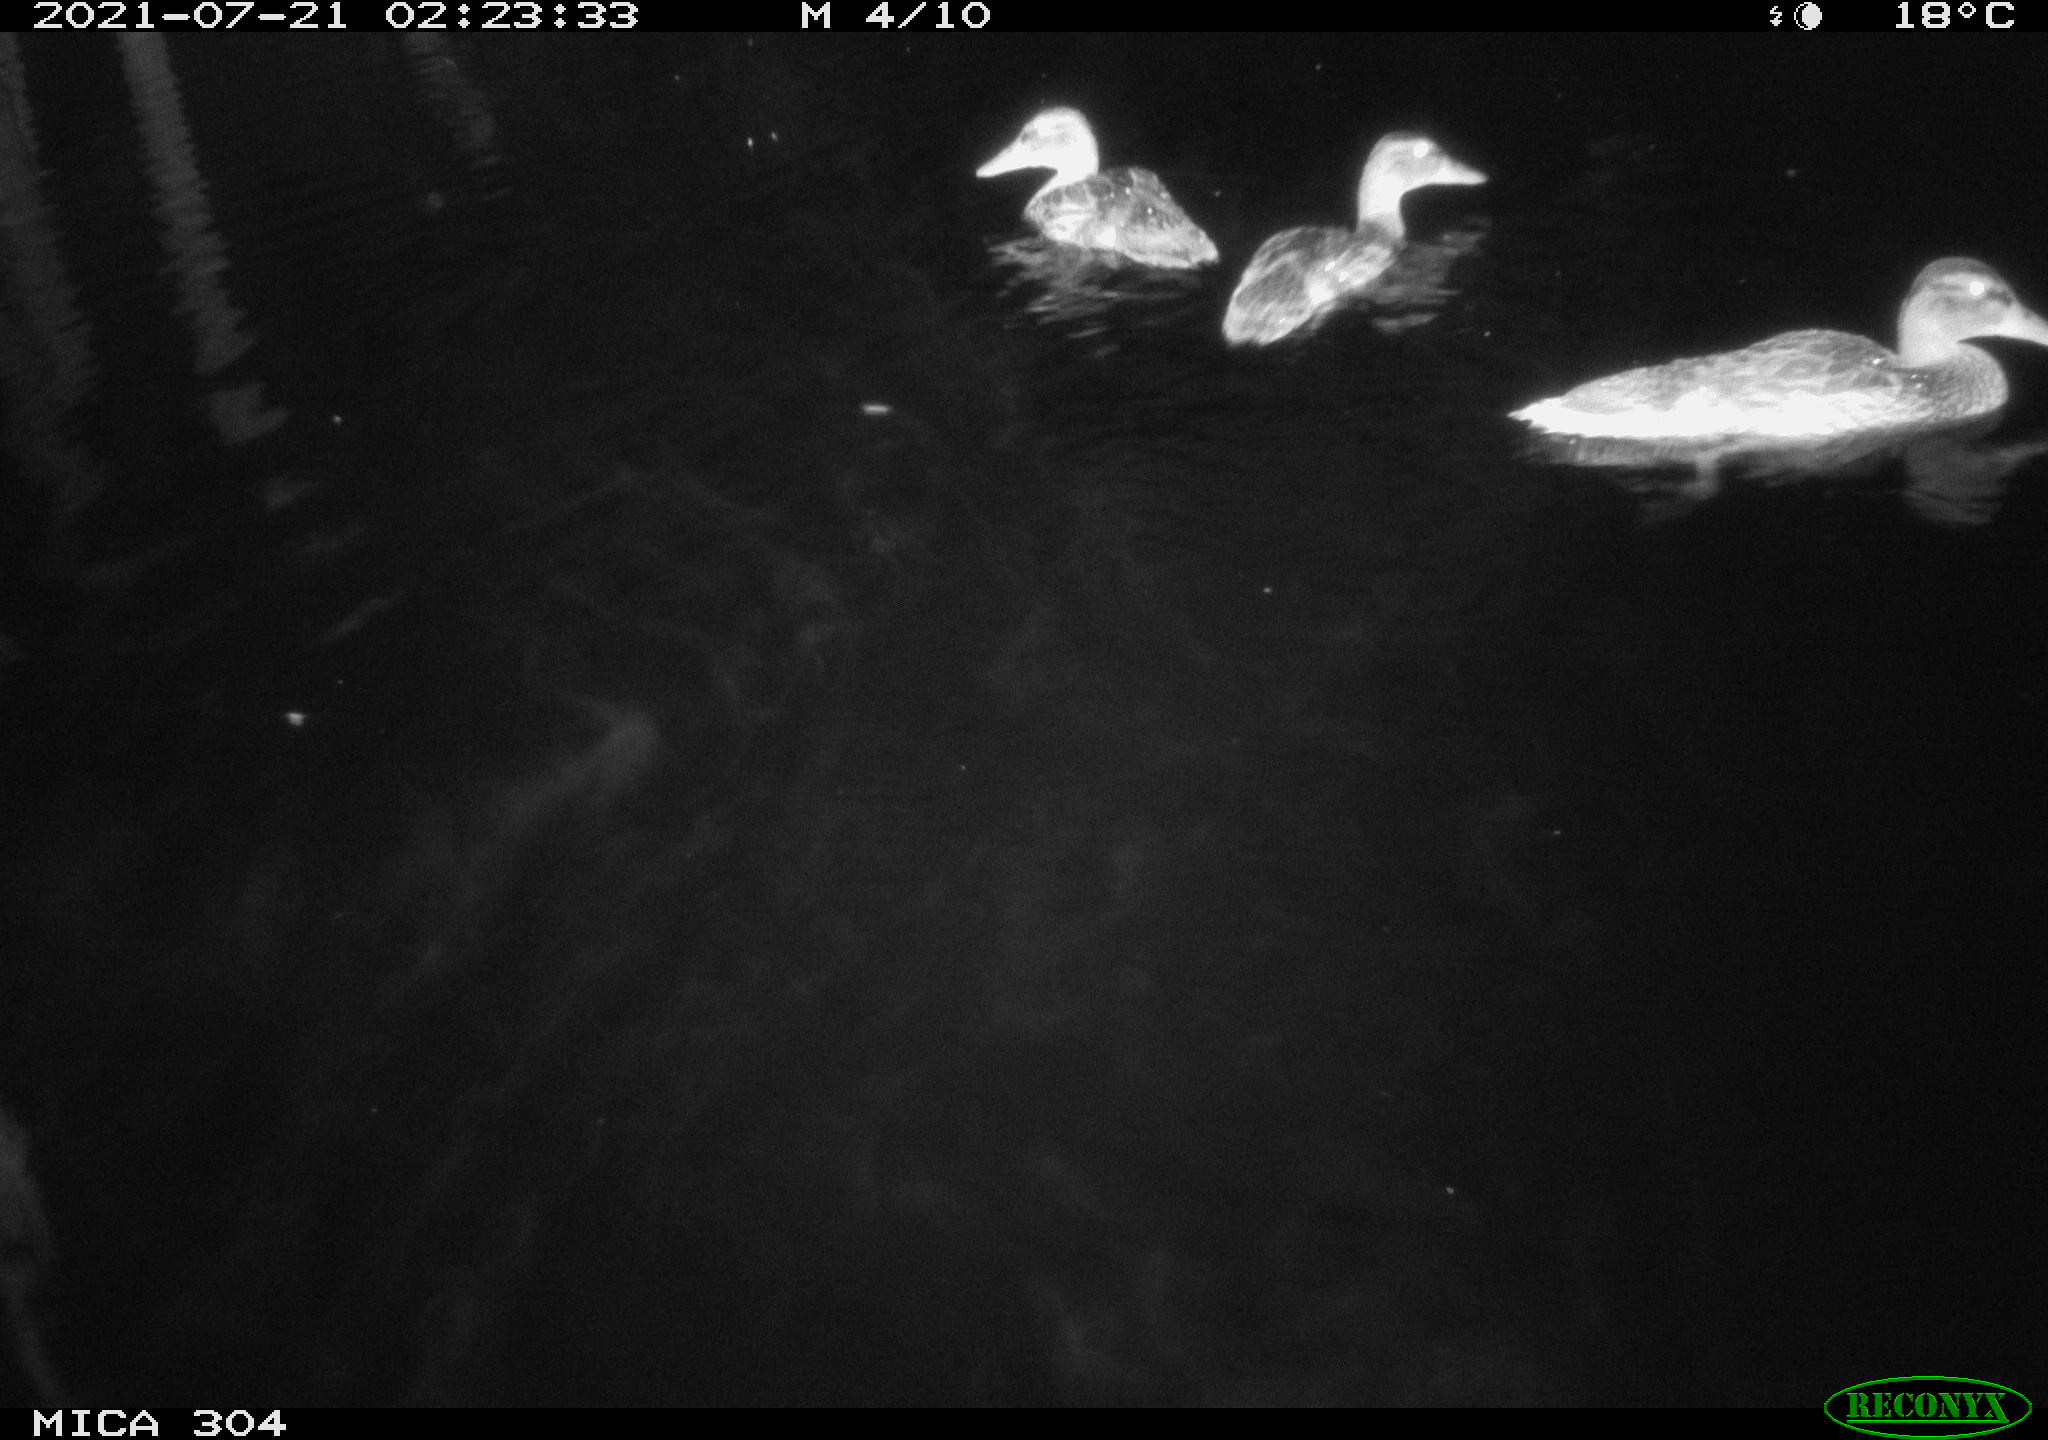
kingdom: Animalia
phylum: Chordata
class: Aves
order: Anseriformes
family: Anatidae
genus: Anas
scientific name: Anas platyrhynchos
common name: Mallard
